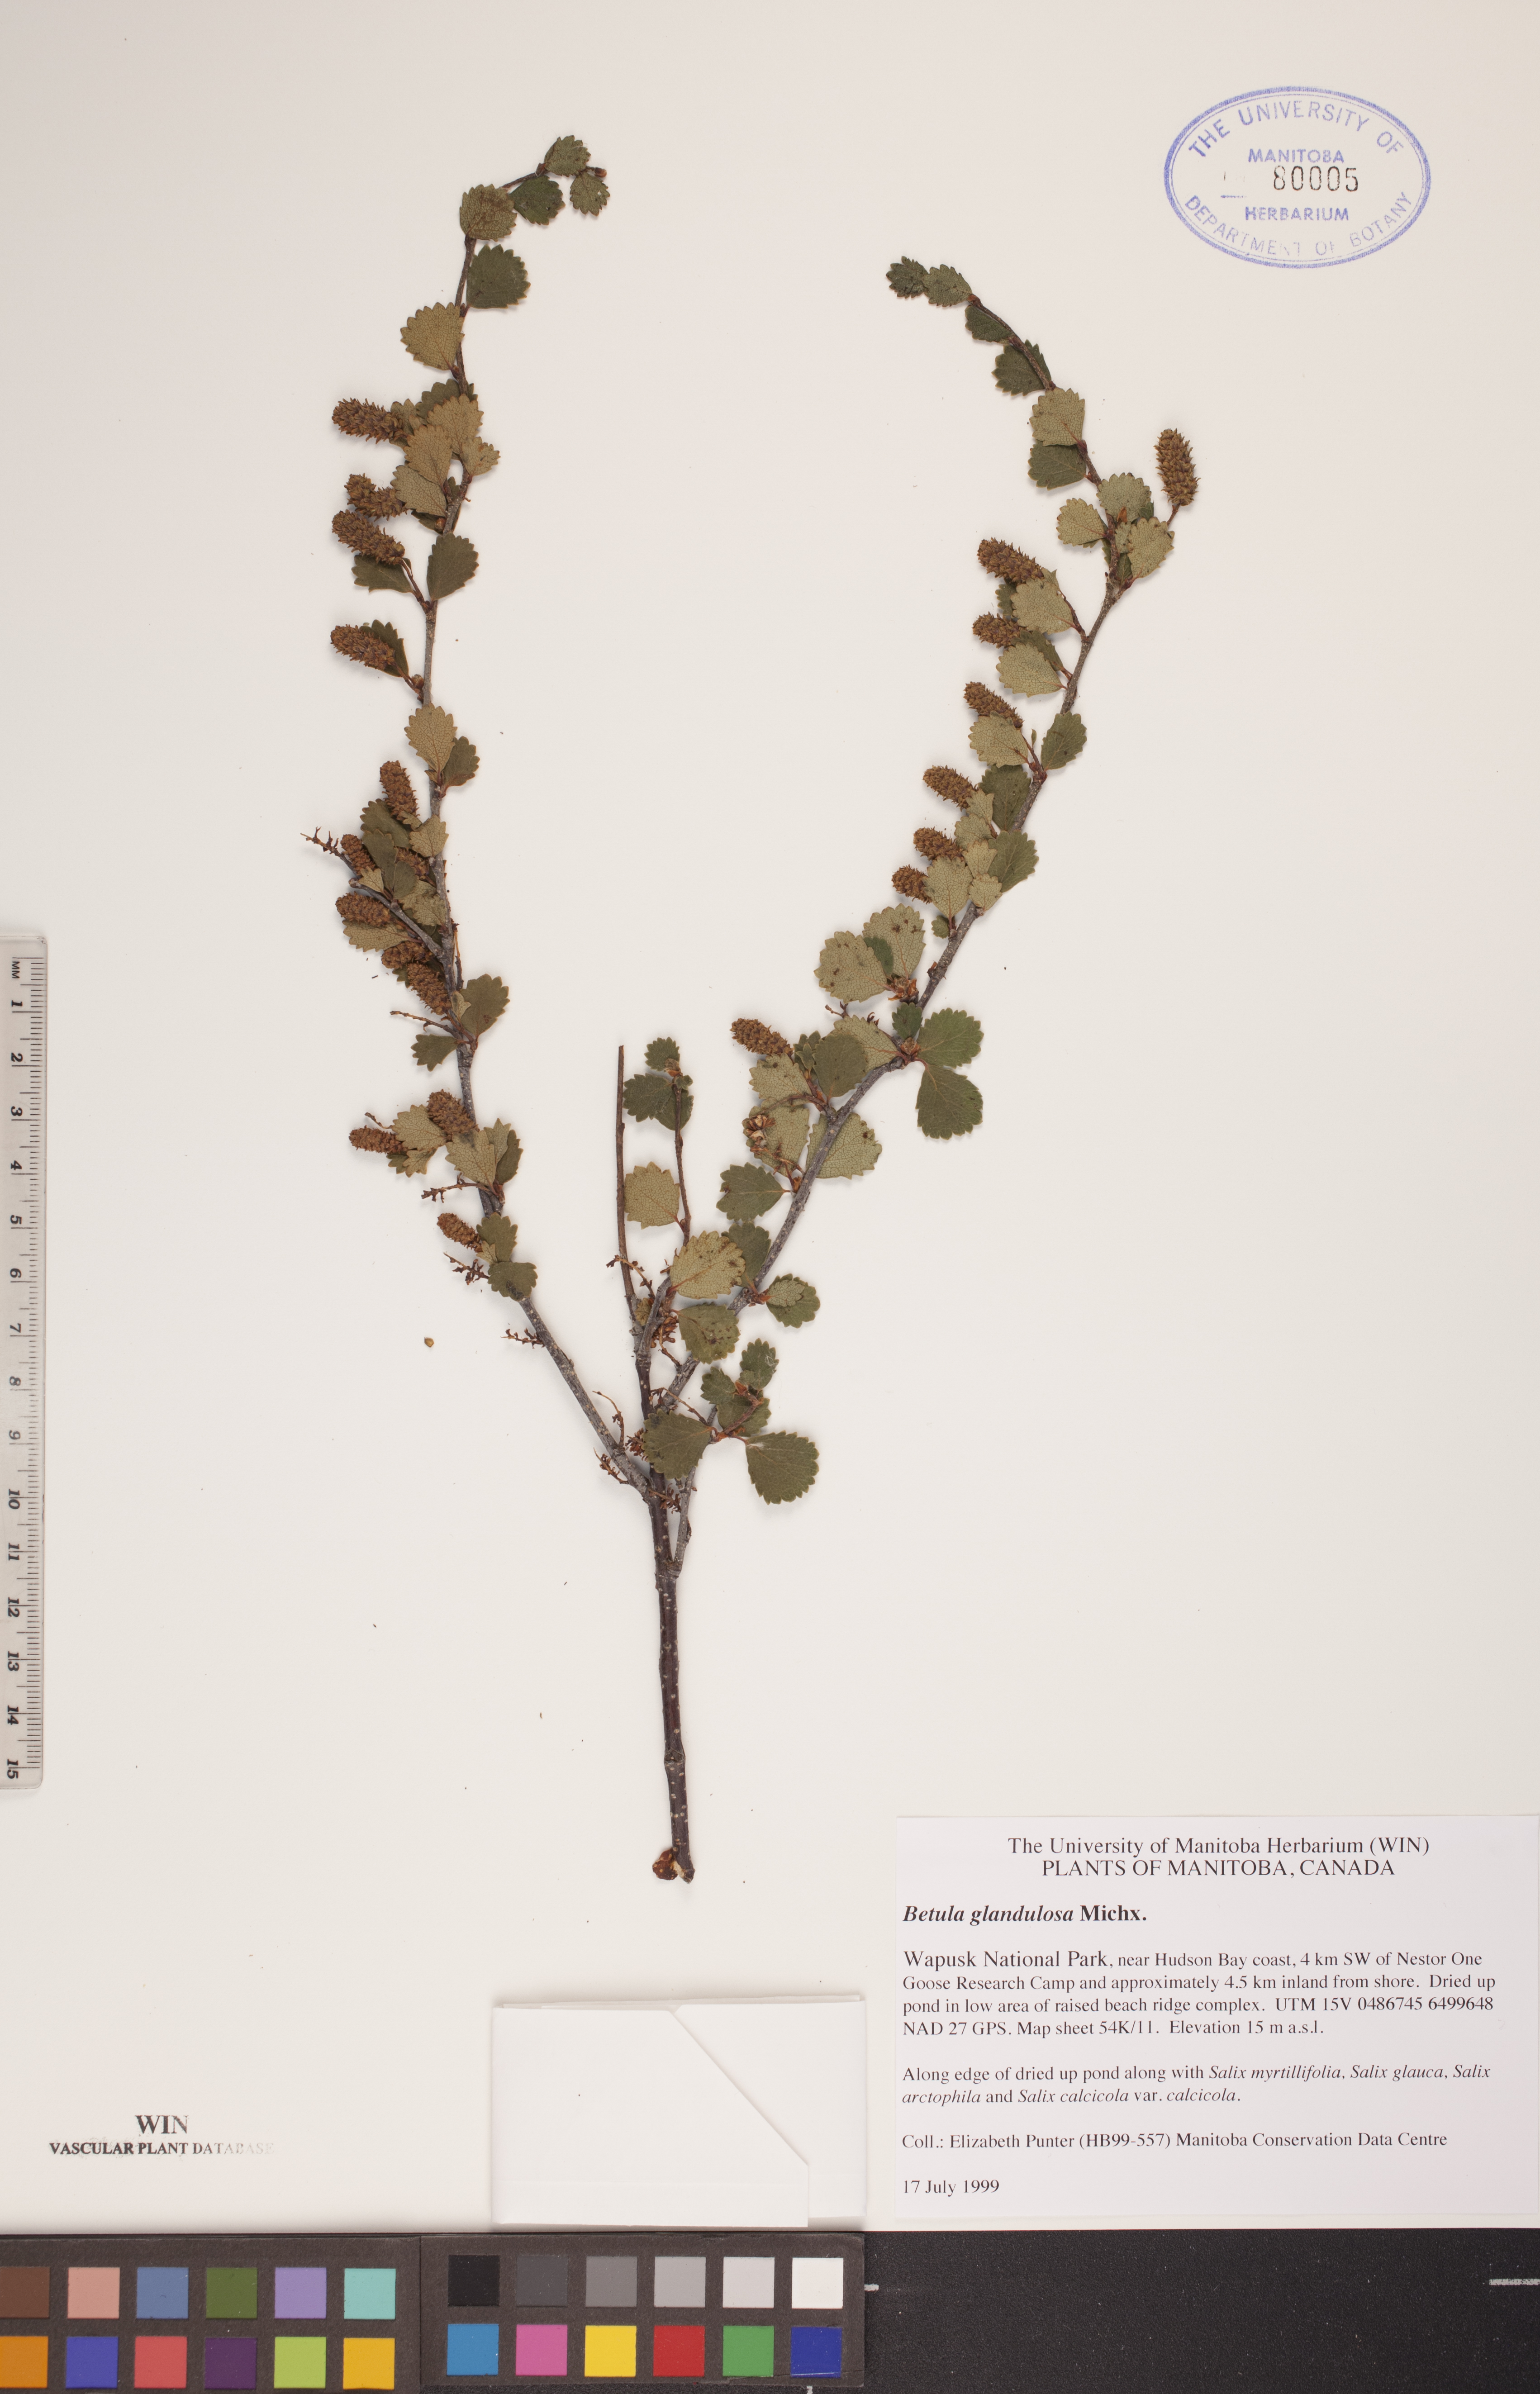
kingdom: Plantae
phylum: Tracheophyta
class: Magnoliopsida
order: Fagales
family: Betulaceae
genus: Betula
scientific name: Betula glandulosa
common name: Dwarf birch
